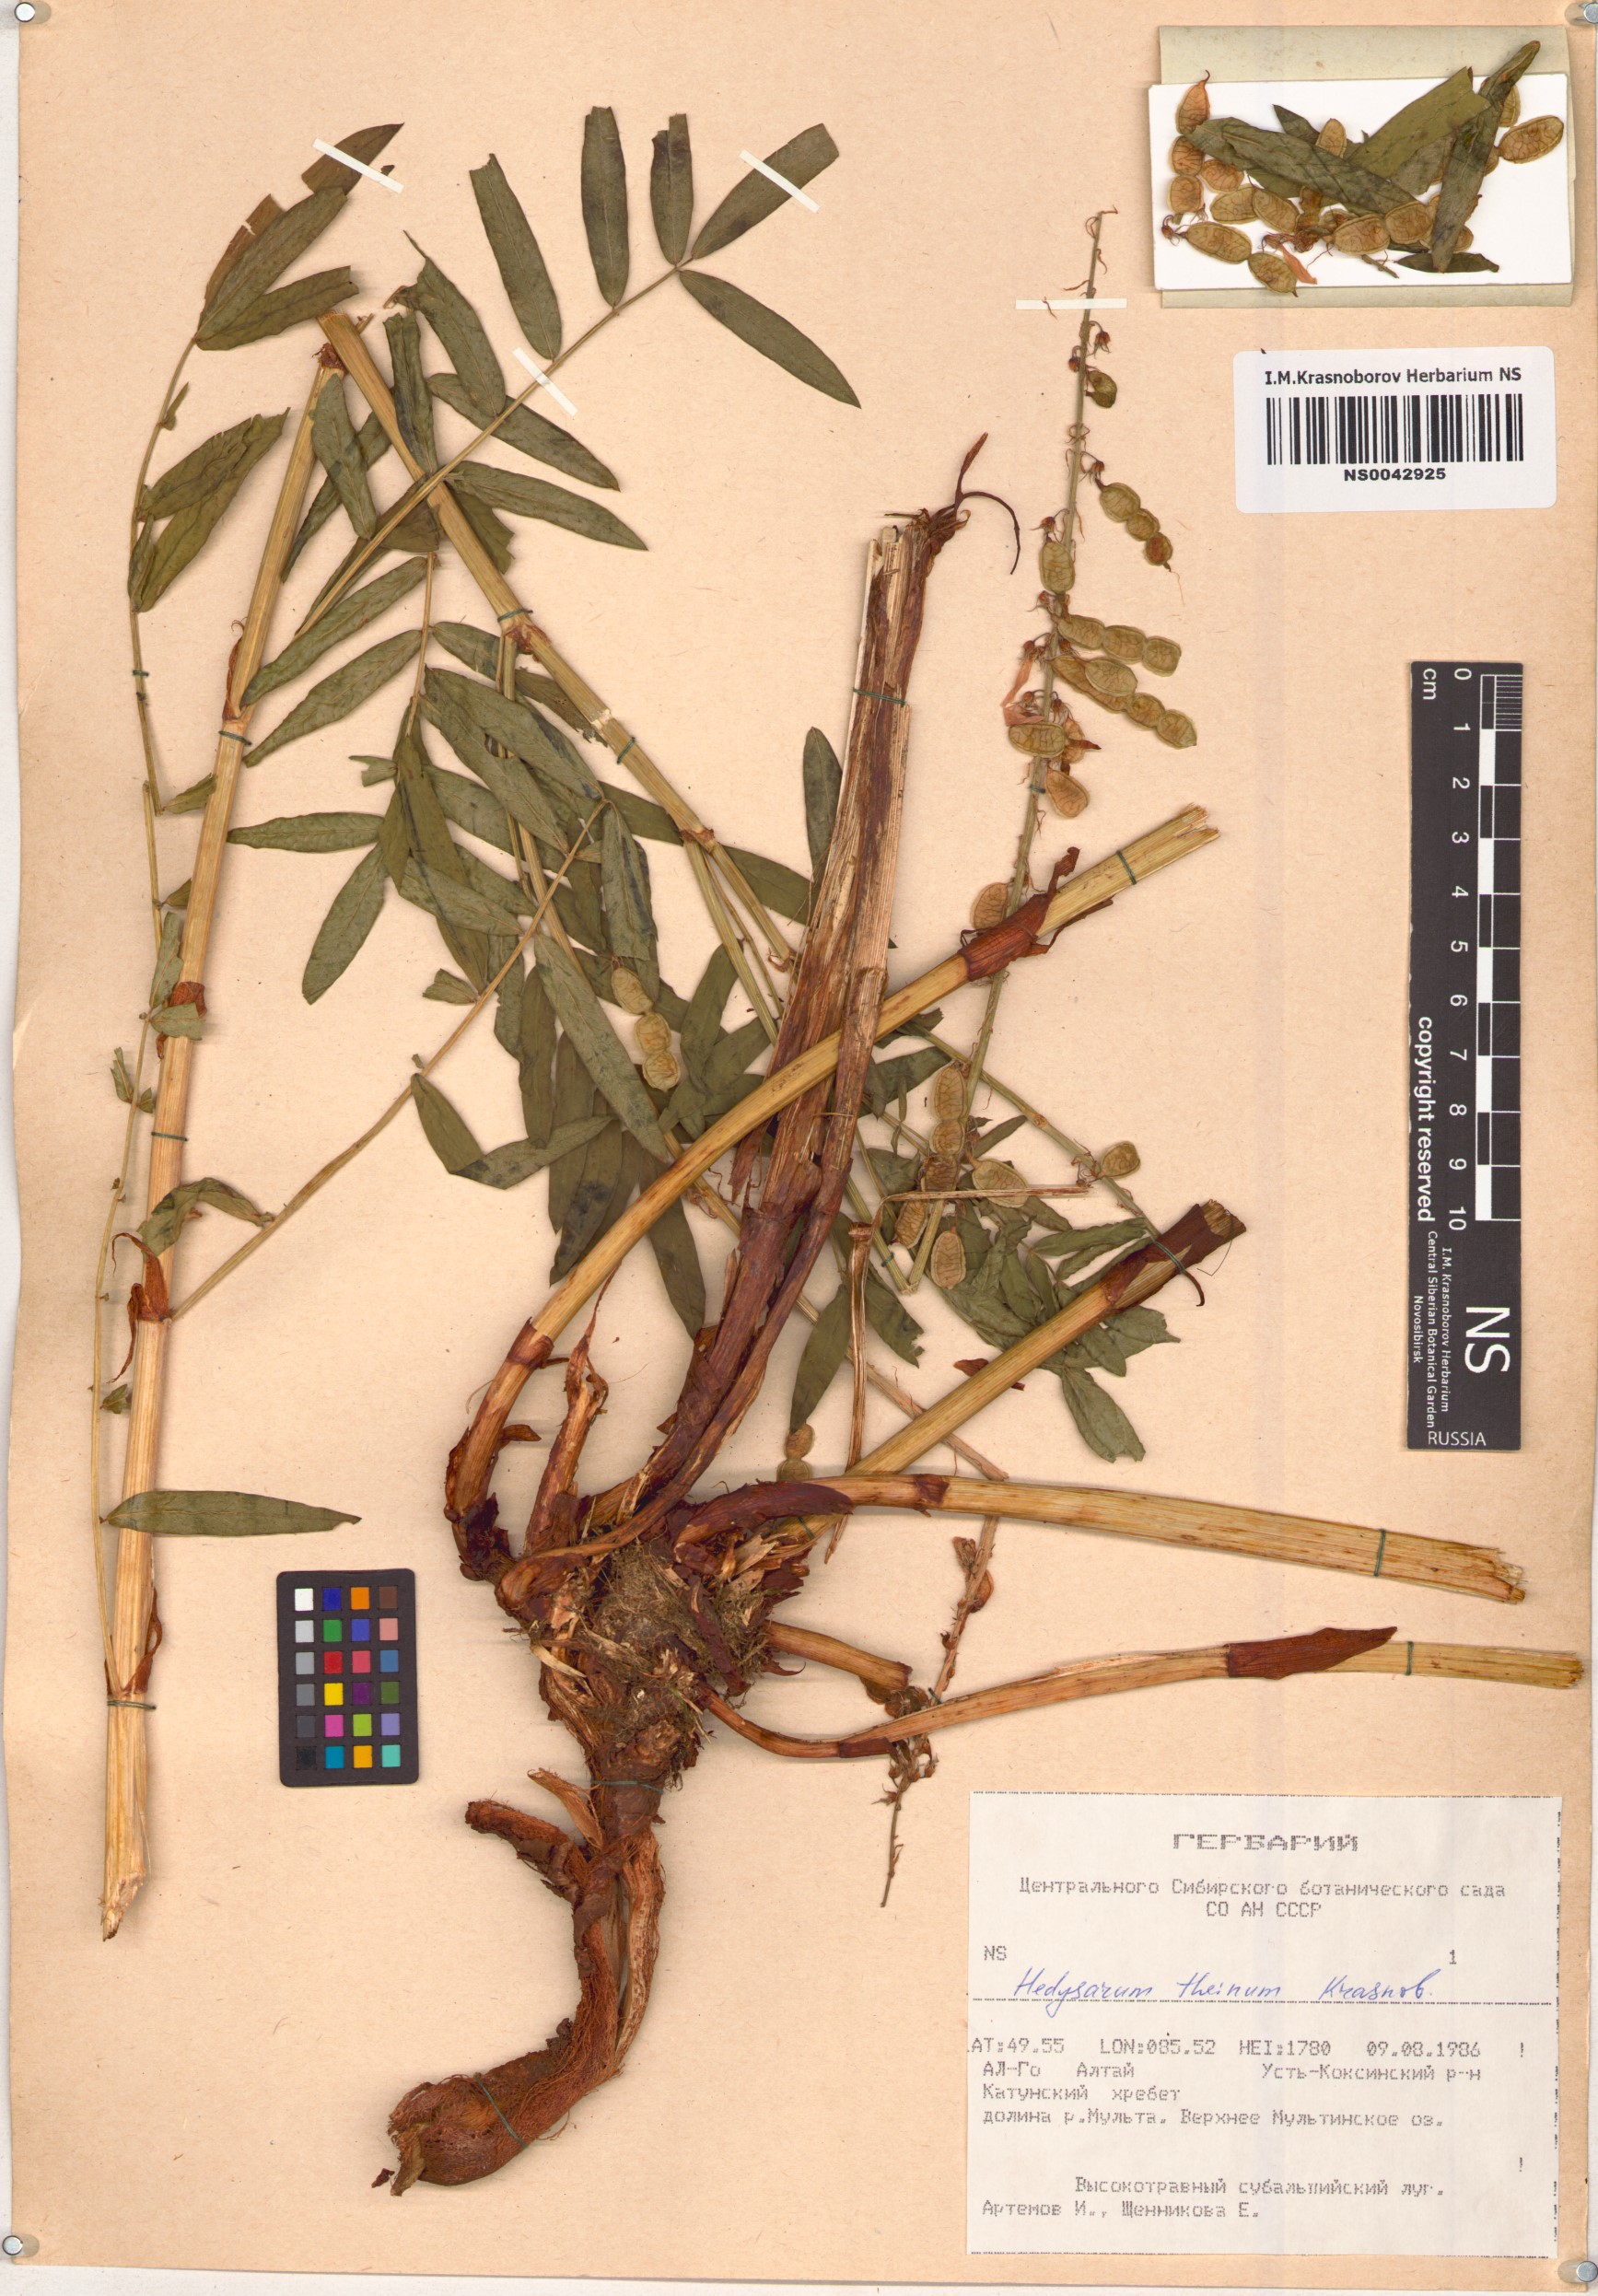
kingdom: Plantae
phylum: Tracheophyta
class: Magnoliopsida
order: Fabales
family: Fabaceae
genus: Hedysarum
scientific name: Hedysarum theinum
